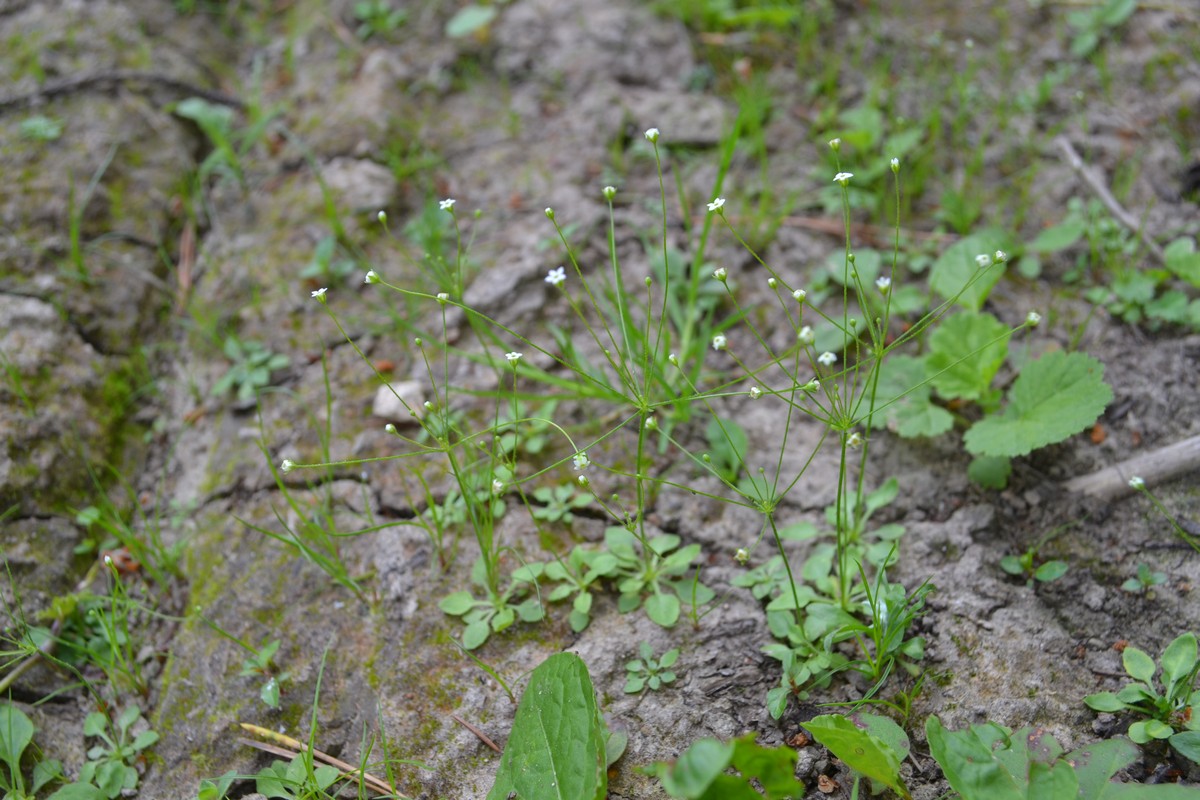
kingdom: Plantae
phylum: Tracheophyta
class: Magnoliopsida
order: Ericales
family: Primulaceae
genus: Androsace
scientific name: Androsace filiformis
